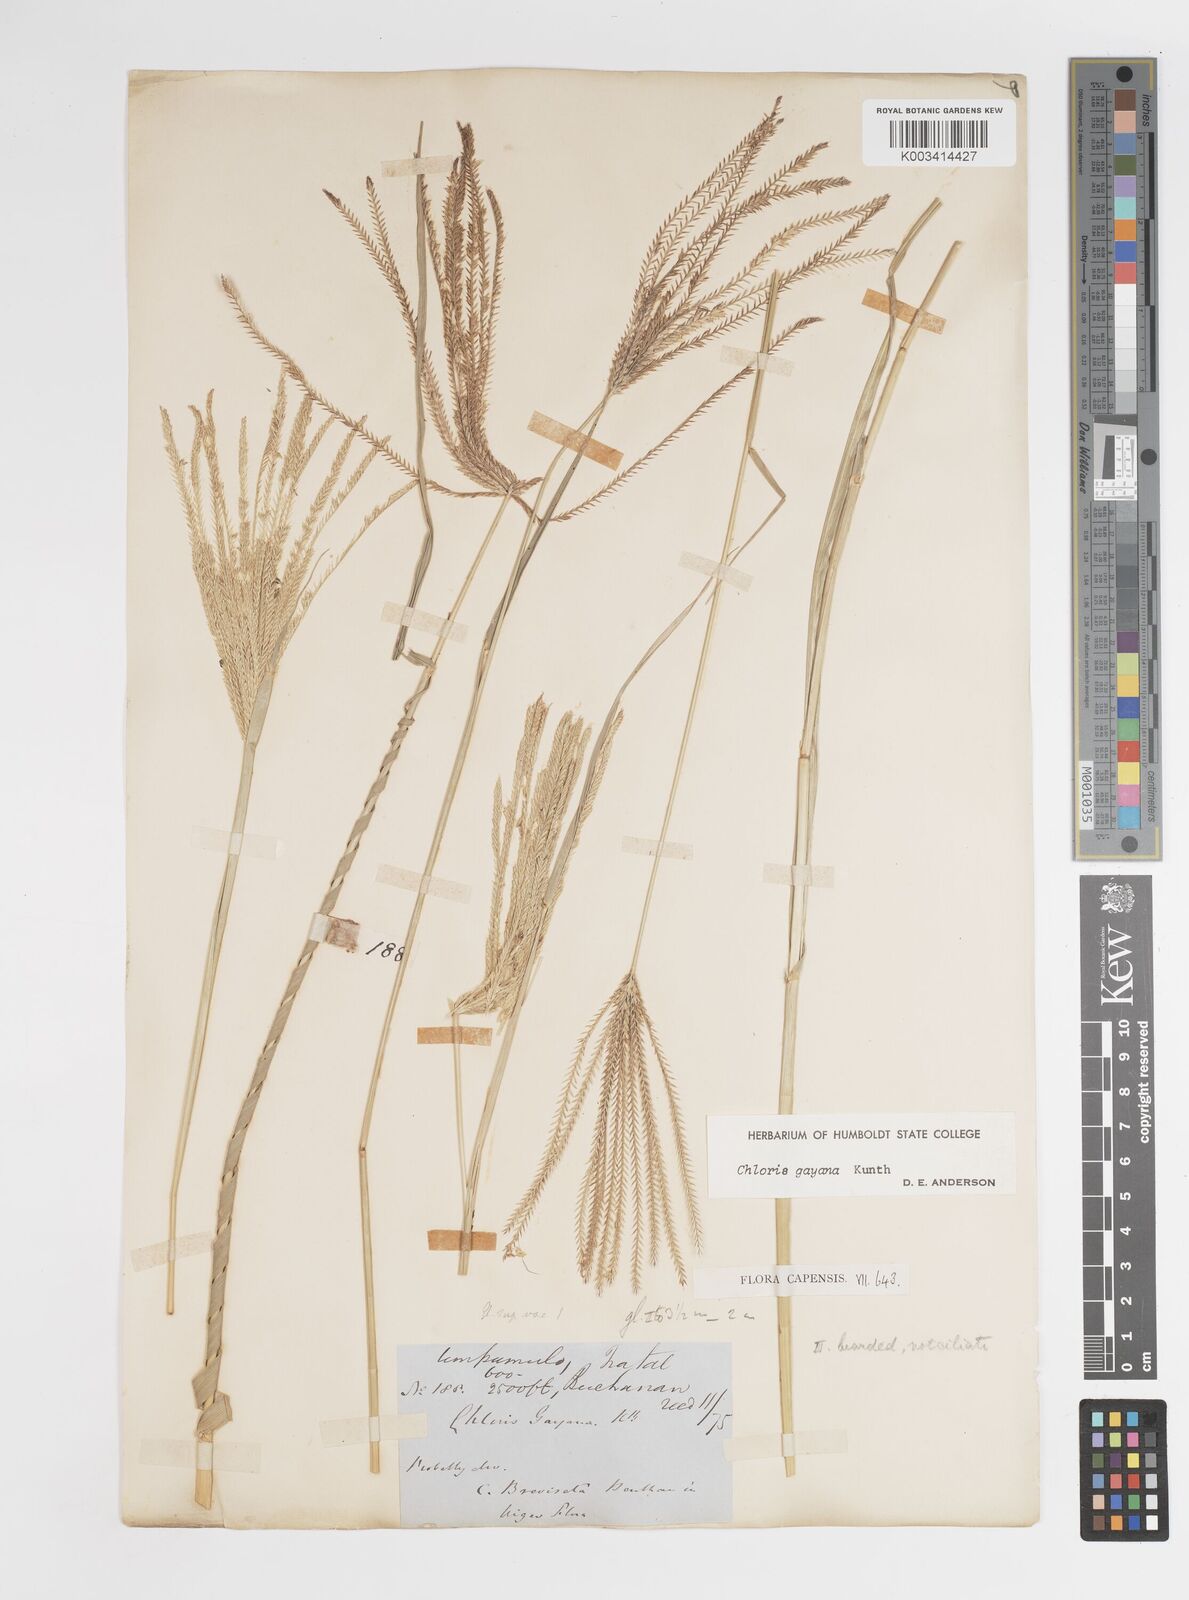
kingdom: Plantae
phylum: Tracheophyta
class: Liliopsida
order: Poales
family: Poaceae
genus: Chloris
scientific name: Chloris gayana
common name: Rhodes grass
